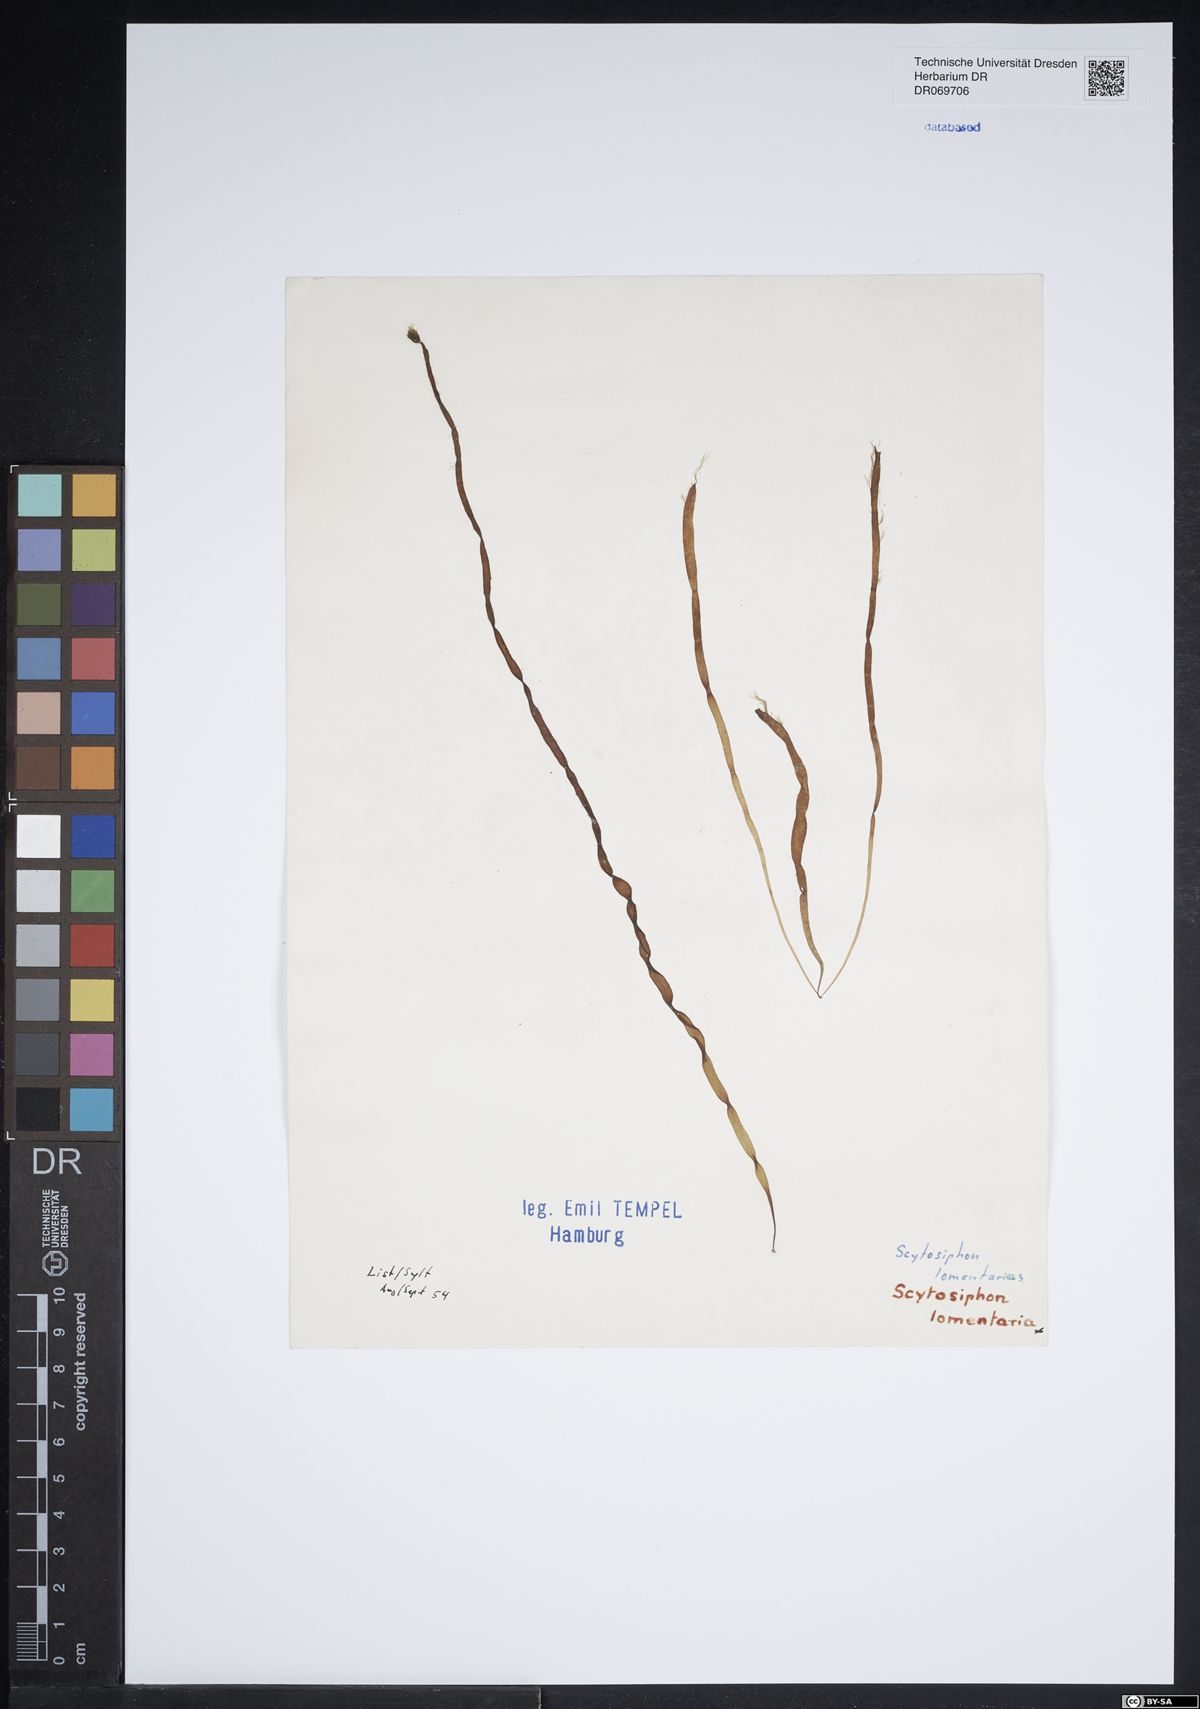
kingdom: Chromista
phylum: Ochrophyta
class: Phaeophyceae
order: Scytosiphonales
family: Scytosiphonaceae
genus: Scytosiphon
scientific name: Scytosiphon lomentaria
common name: Beanweed
